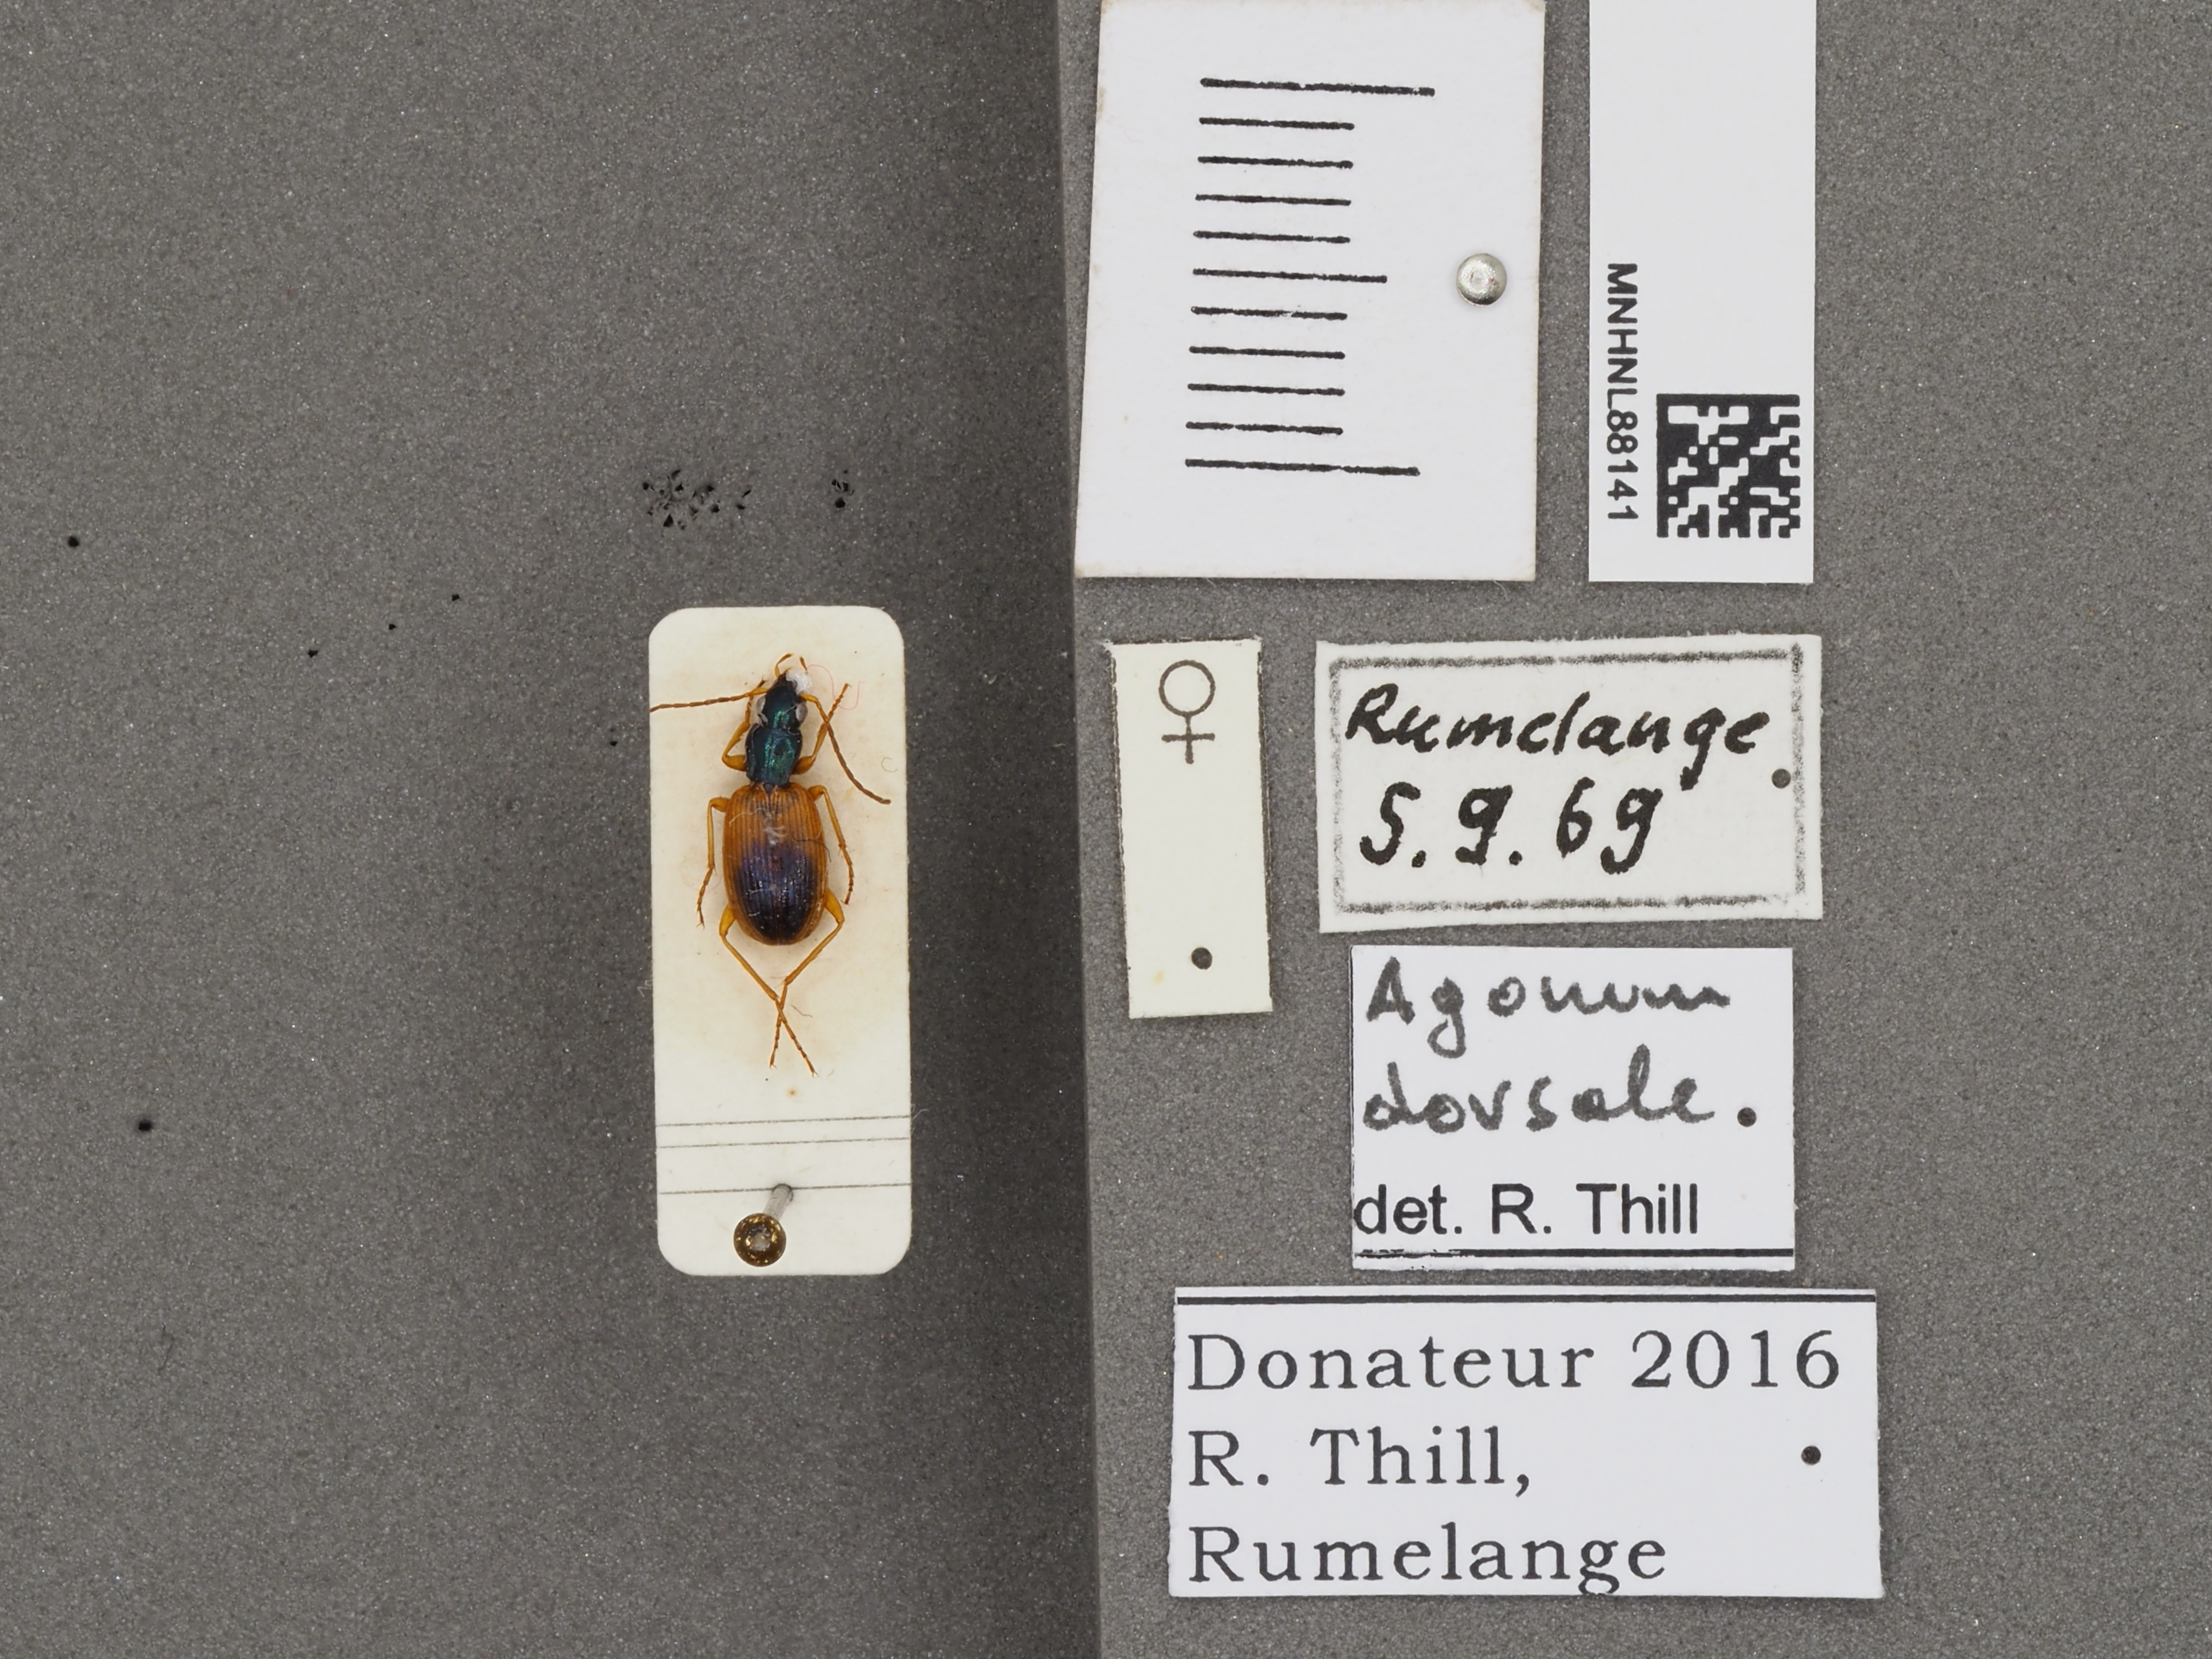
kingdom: Animalia
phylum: Arthropoda
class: Insecta
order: Coleoptera
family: Carabidae
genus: Anchomenus
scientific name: Anchomenus dorsalis
